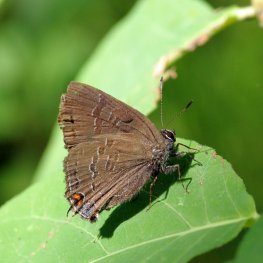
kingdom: Animalia
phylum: Arthropoda
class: Insecta
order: Lepidoptera
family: Lycaenidae
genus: Satyrium
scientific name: Satyrium calanus
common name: Banded Hairstreak
